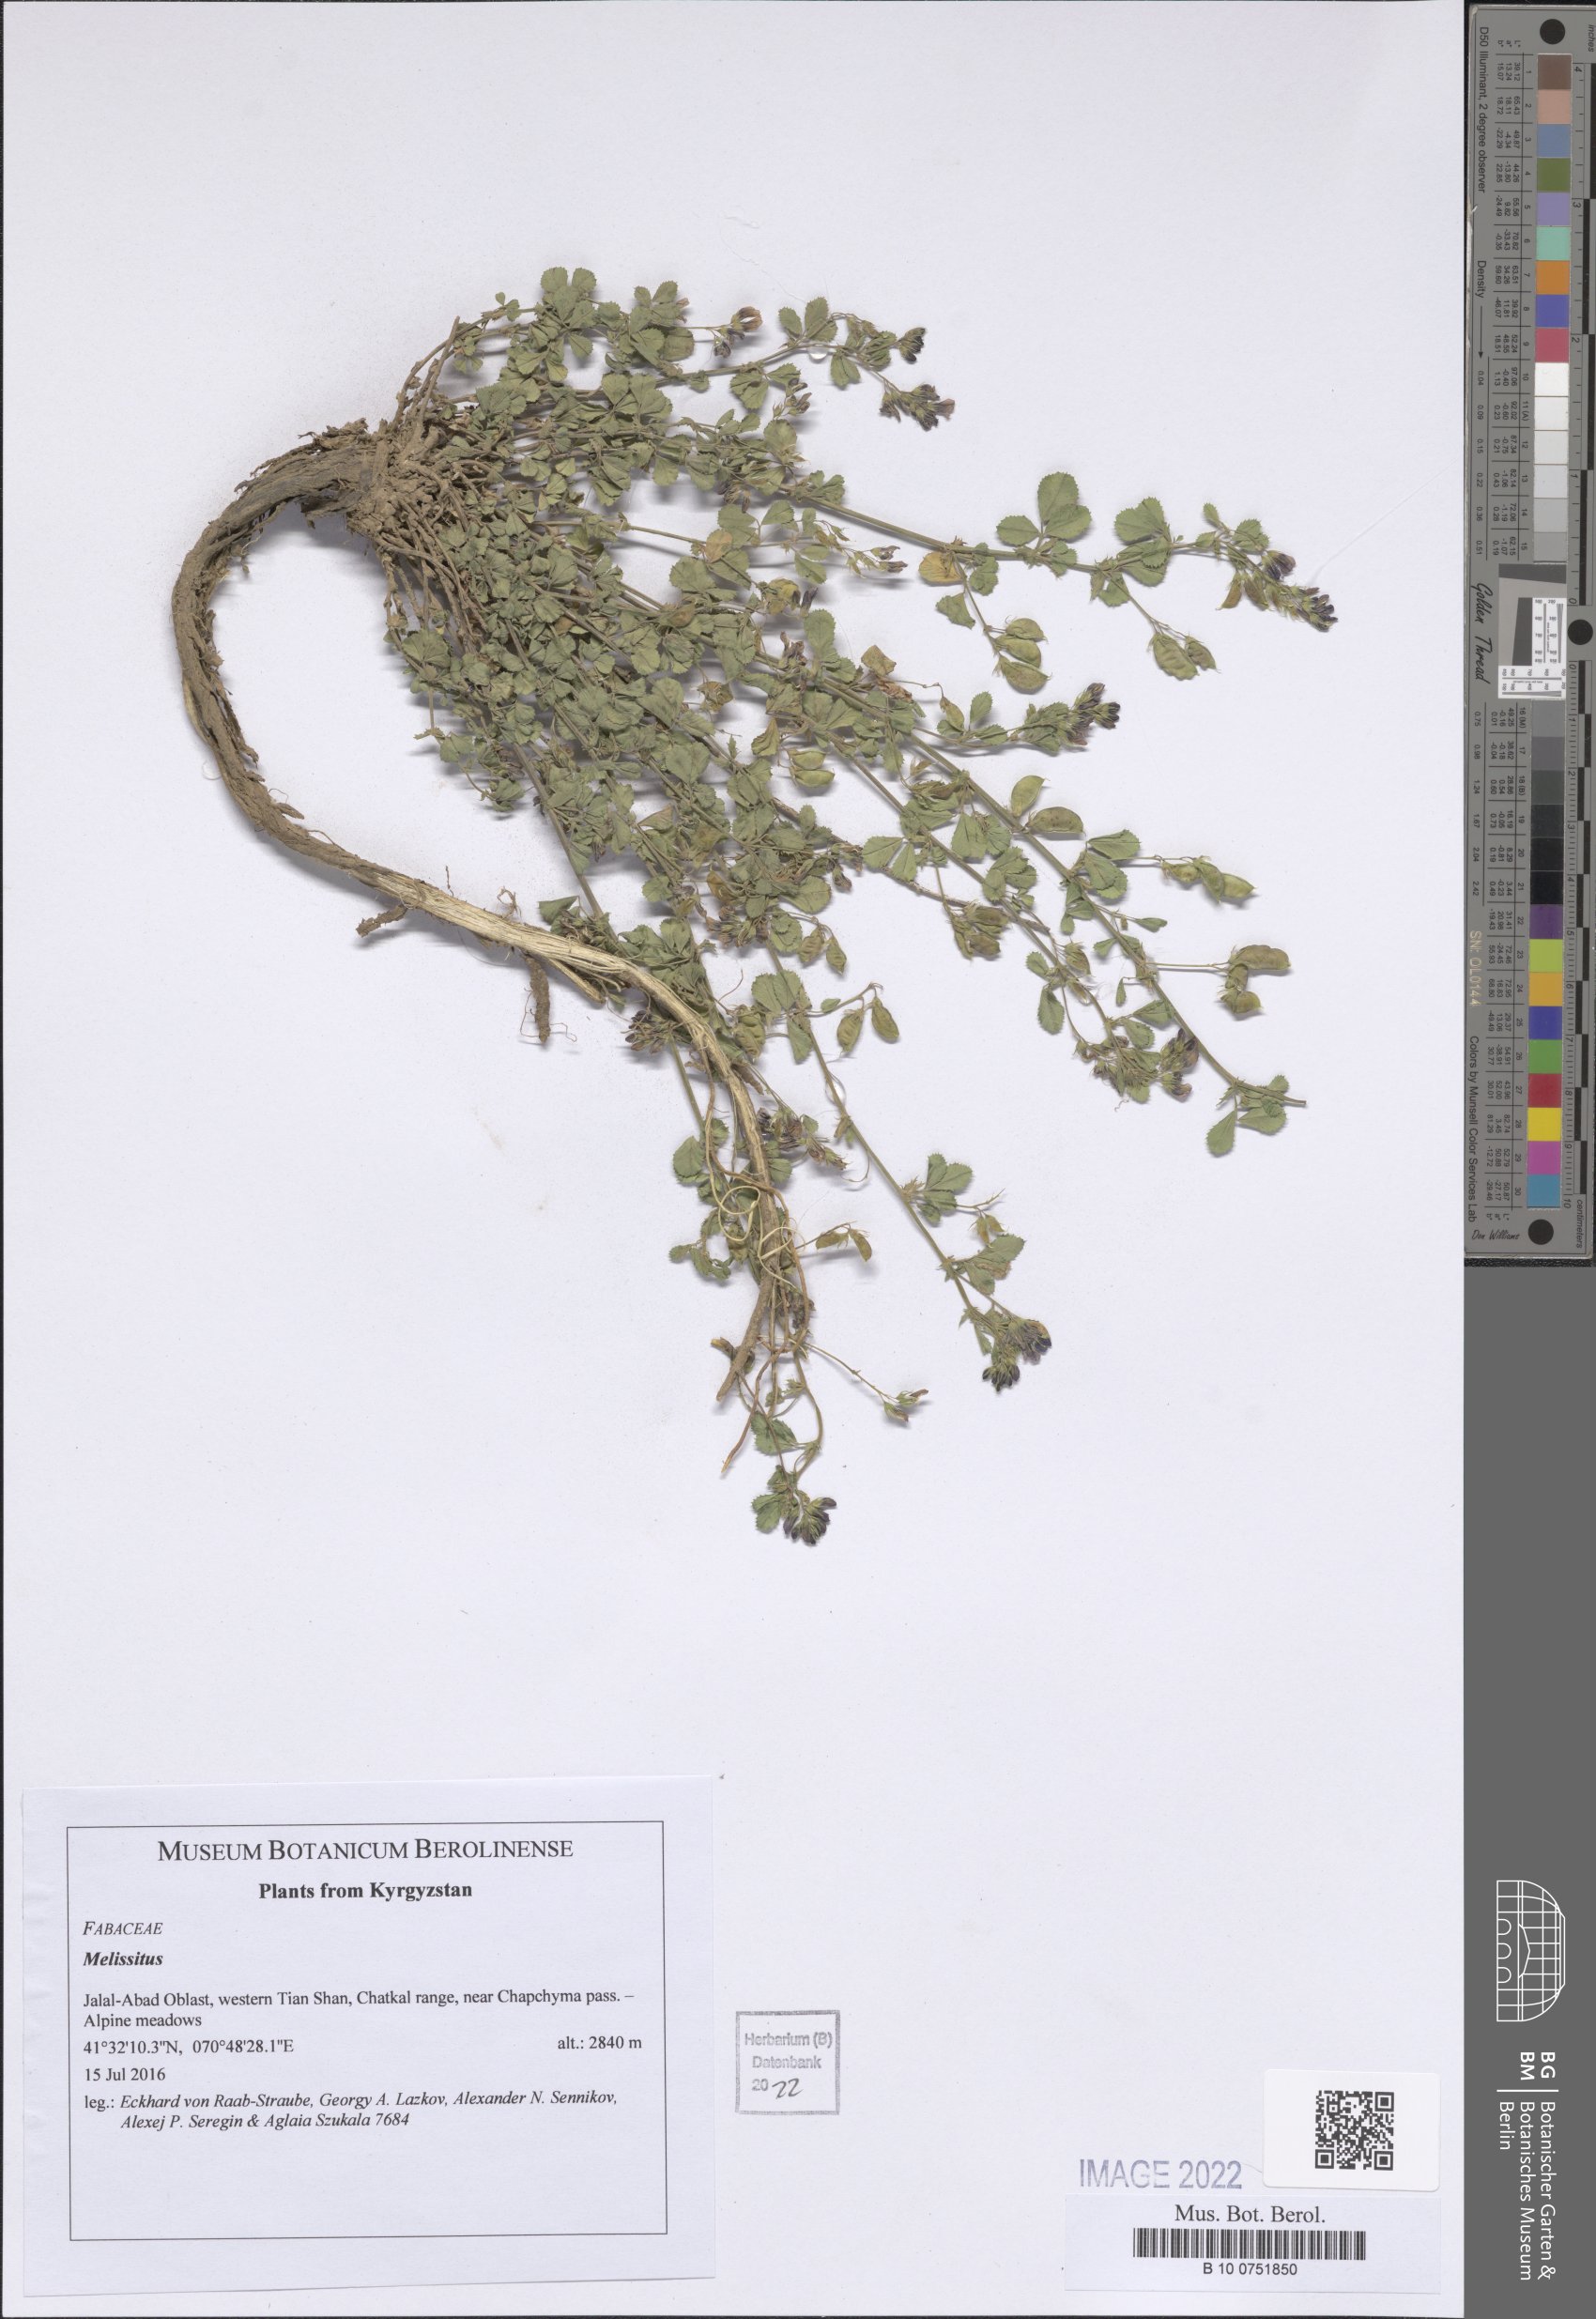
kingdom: Plantae
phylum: Tracheophyta
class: Magnoliopsida
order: Fabales
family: Fabaceae
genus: Trigonella
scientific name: Trigonella
